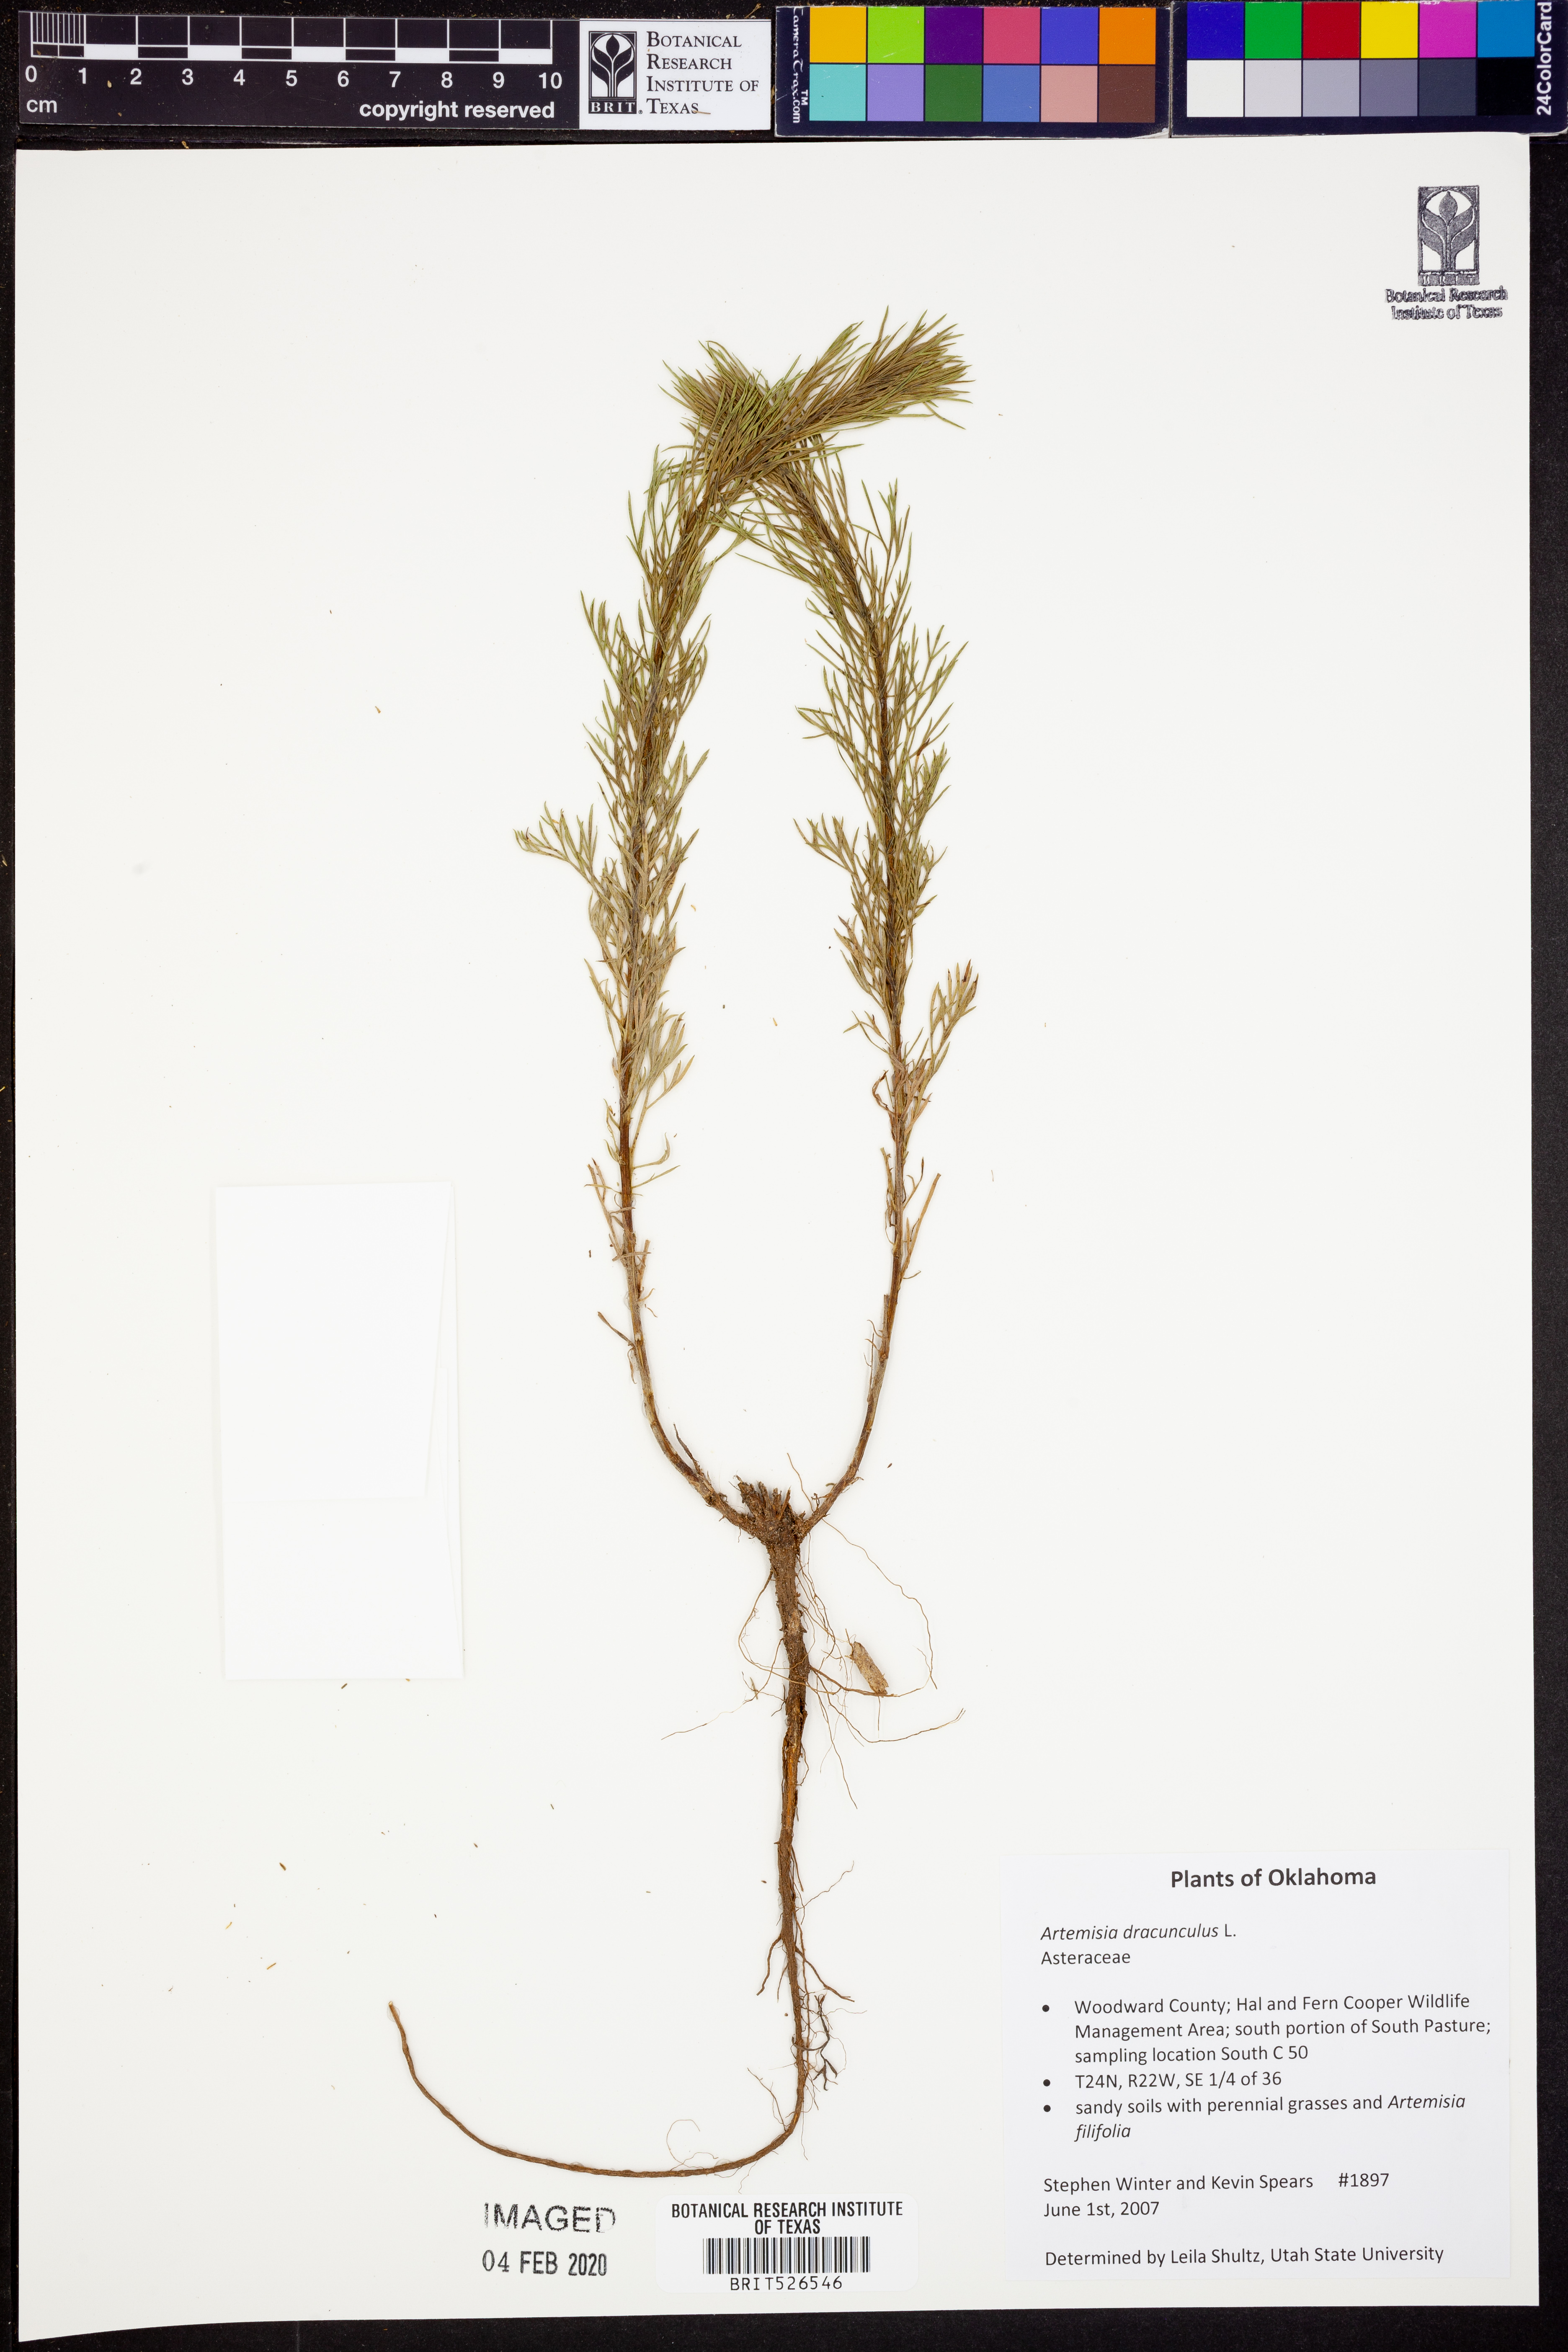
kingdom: Plantae
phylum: Tracheophyta
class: Magnoliopsida
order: Asterales
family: Asteraceae
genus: Artemisia
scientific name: Artemisia dracunculus
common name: Tarragon
